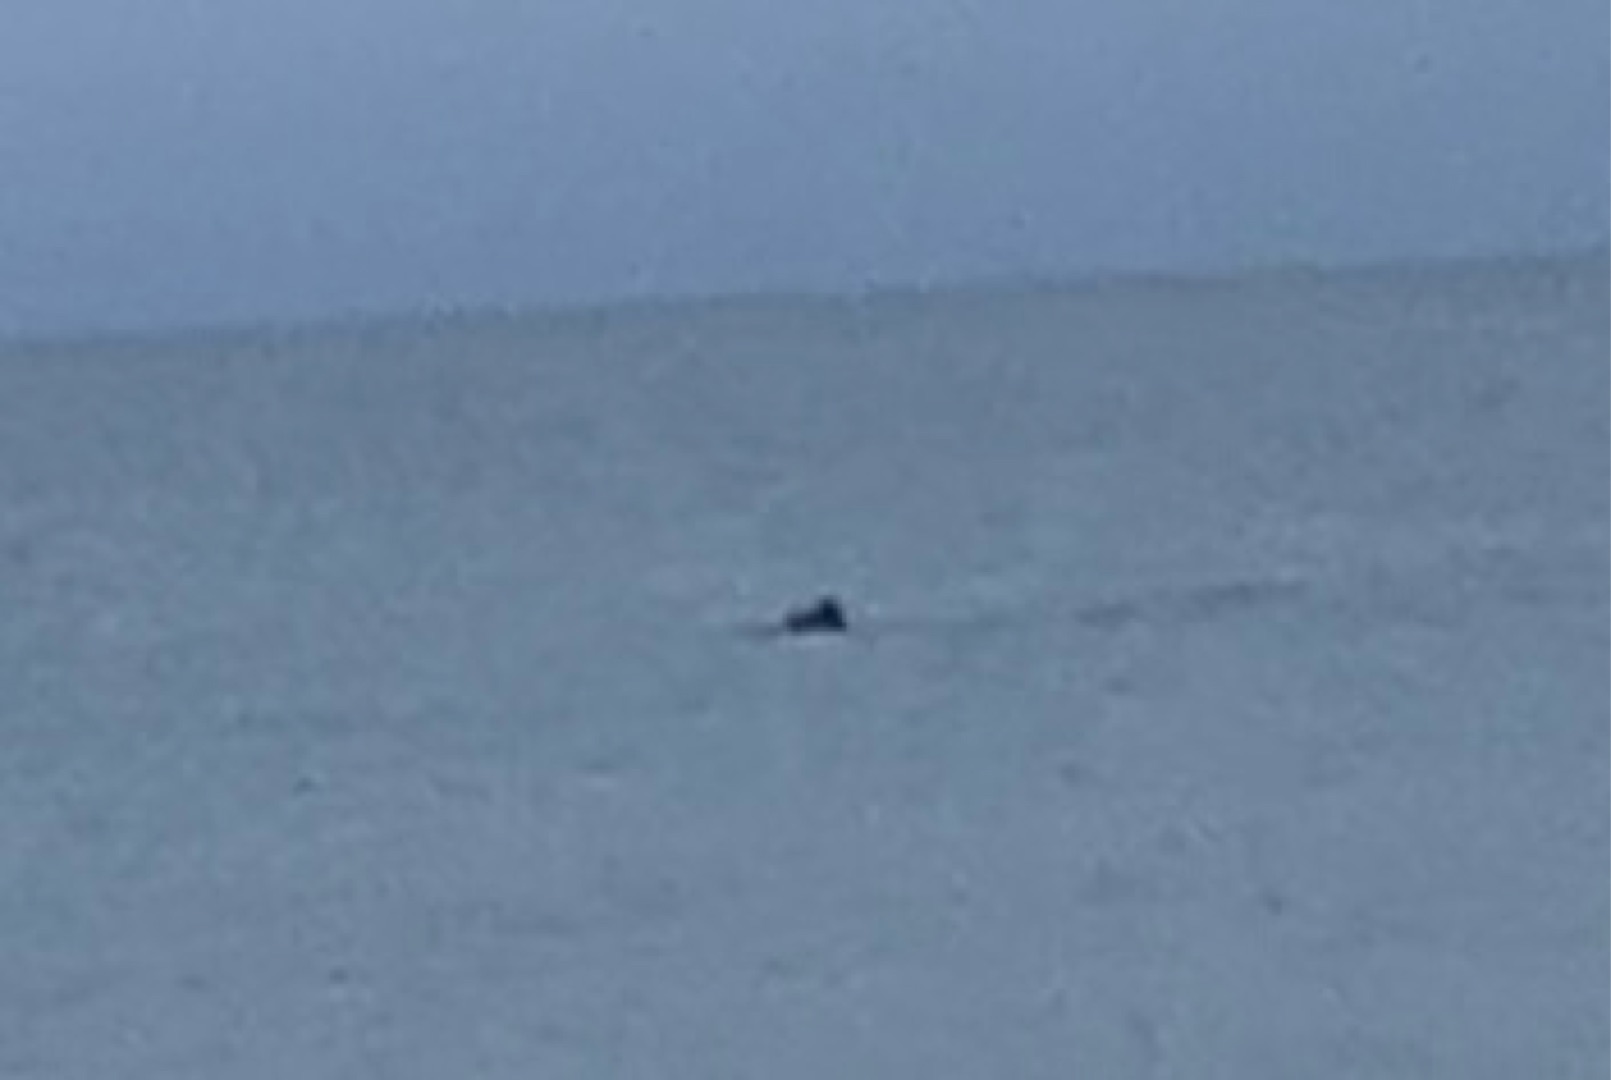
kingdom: Animalia
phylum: Chordata
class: Mammalia
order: Cetacea
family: Phocoenidae
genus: Phocoena
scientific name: Phocoena phocoena
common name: Marsvin
